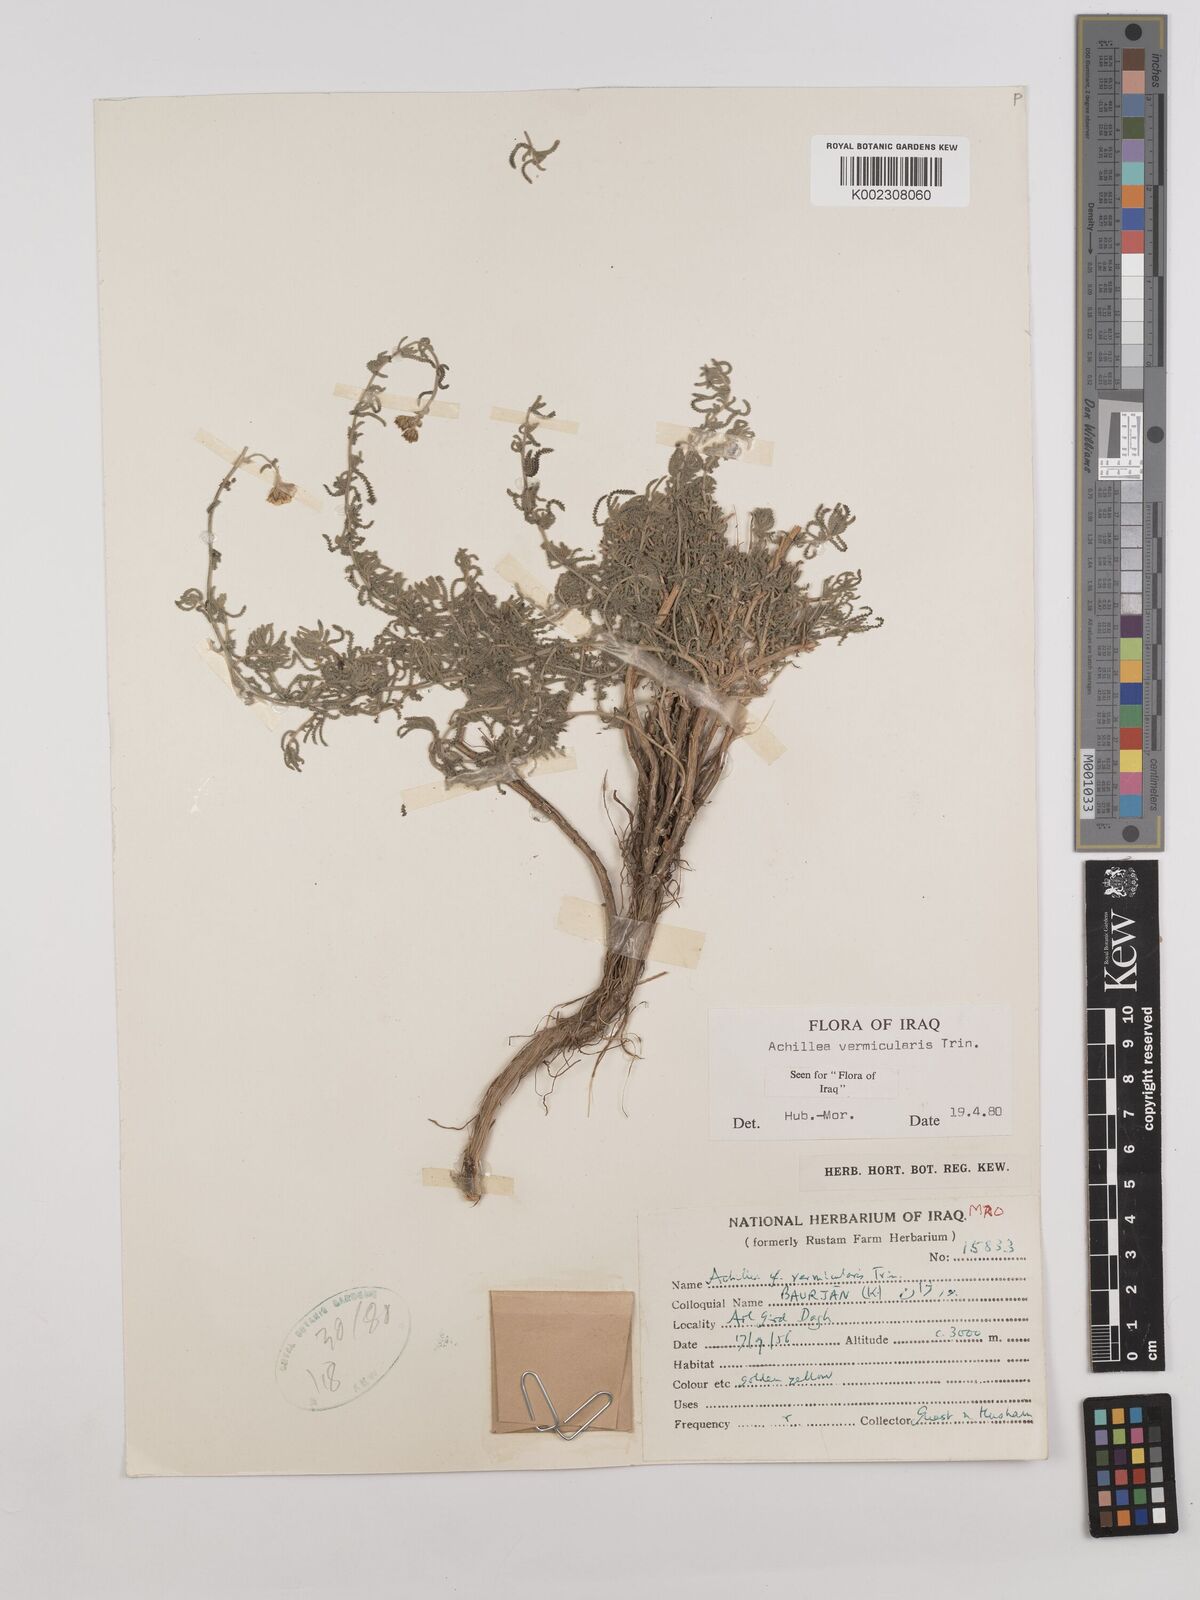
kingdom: Plantae
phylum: Tracheophyta
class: Magnoliopsida
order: Asterales
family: Asteraceae
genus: Achillea
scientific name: Achillea vermicularis
